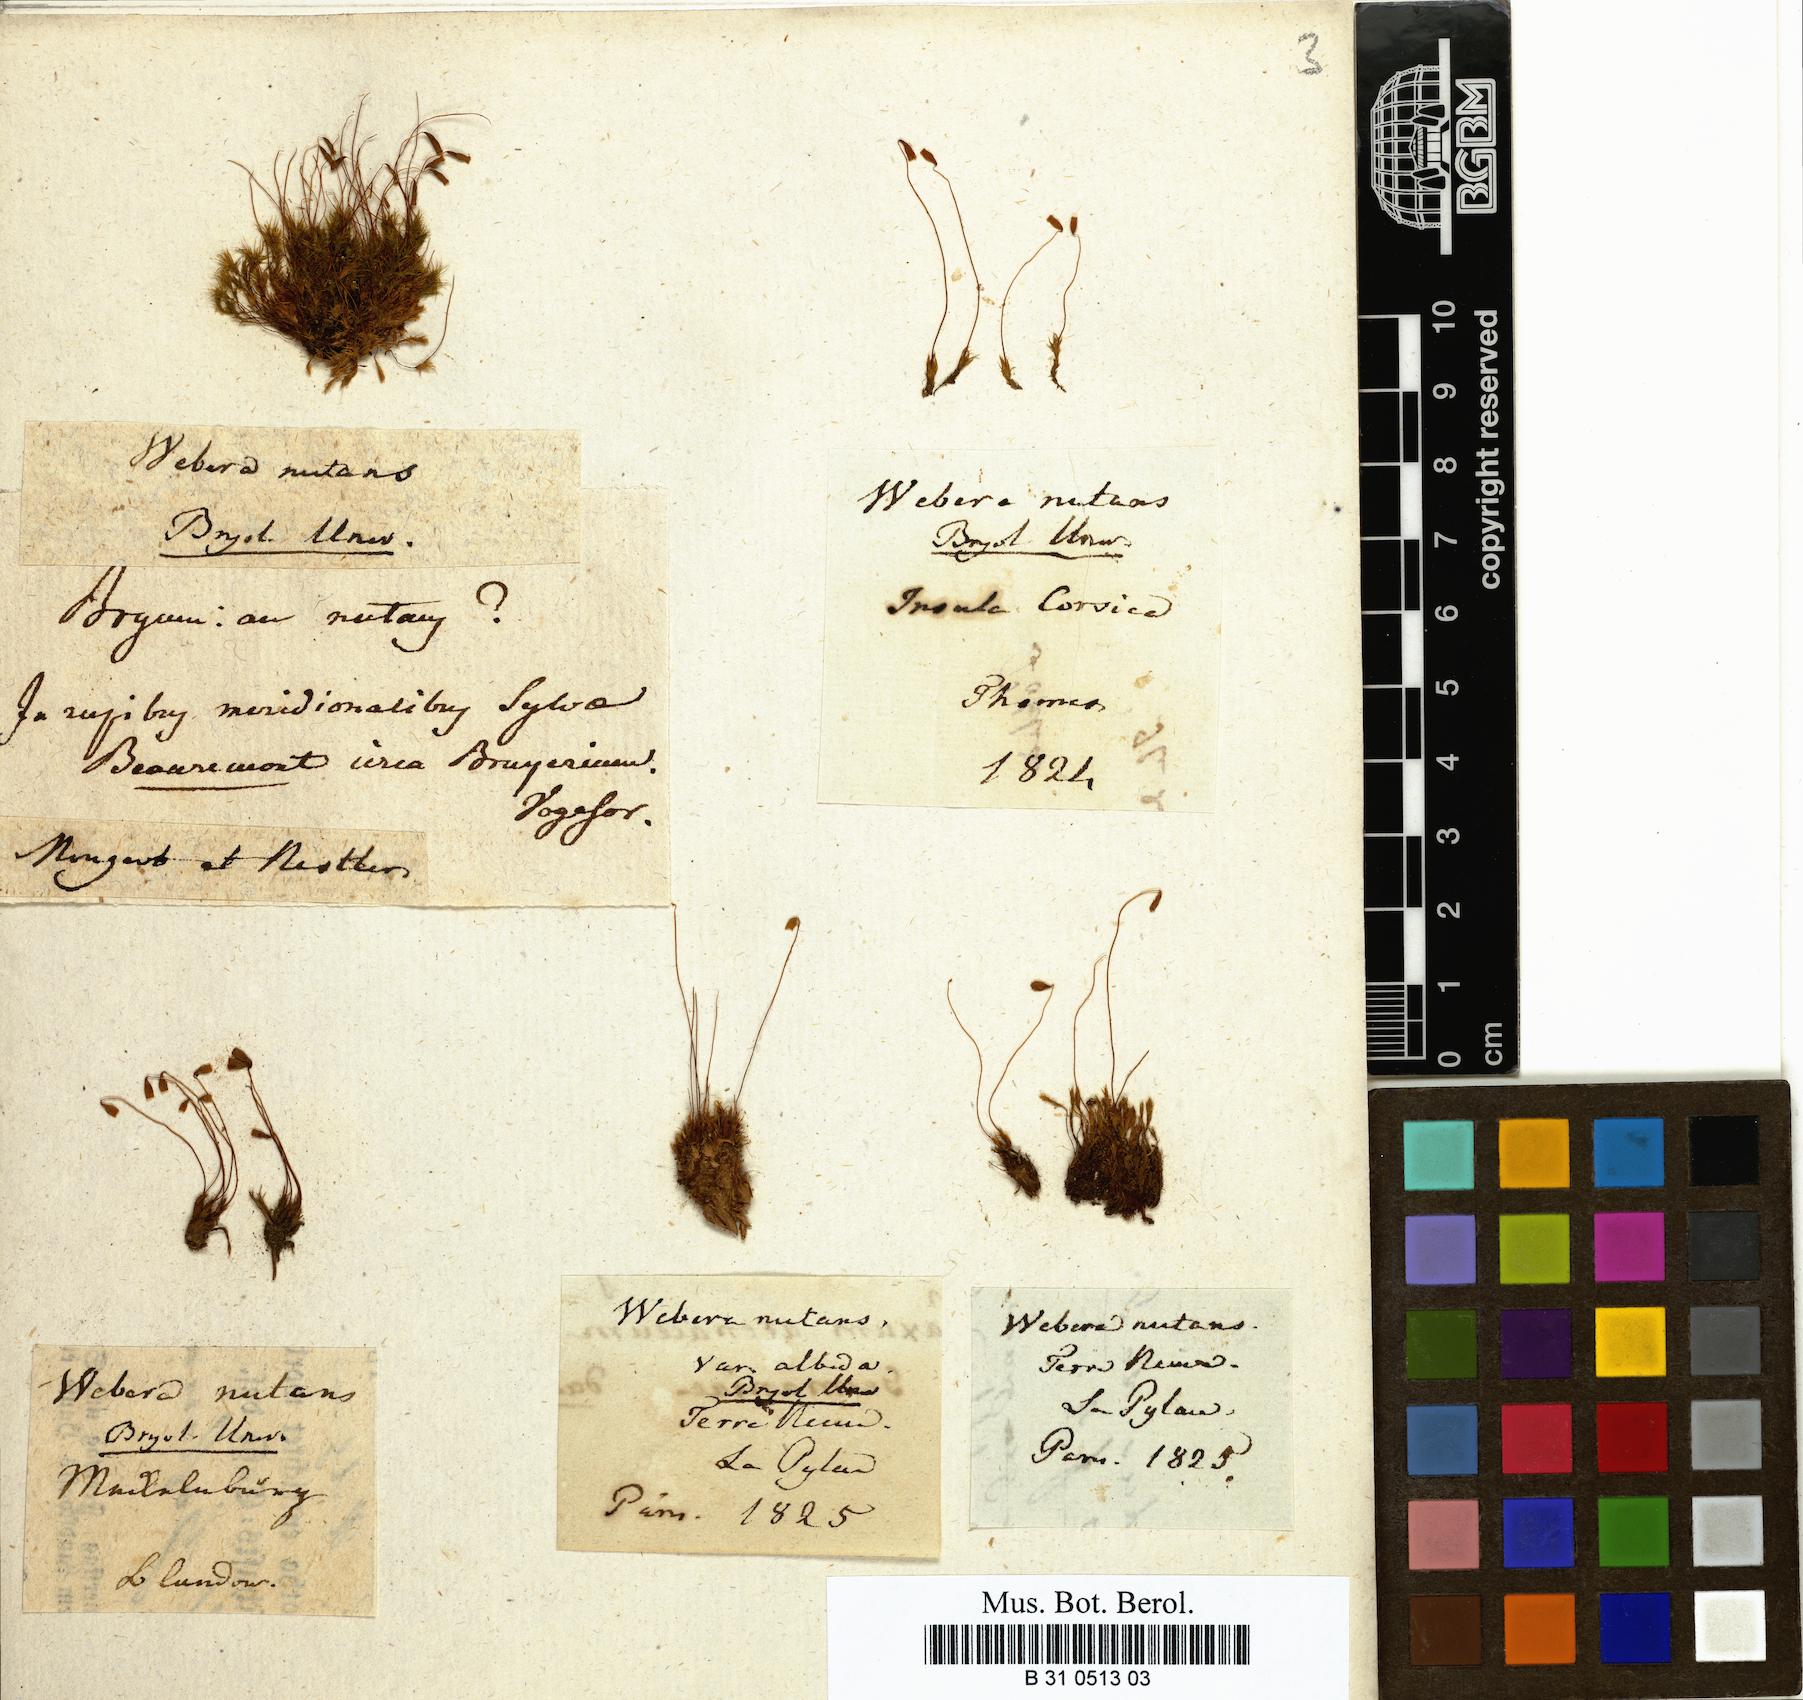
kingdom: Plantae
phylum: Bryophyta
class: Bryopsida
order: Bryales
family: Mniaceae
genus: Pohlia
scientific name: Pohlia nutans
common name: Nodding thread-moss
